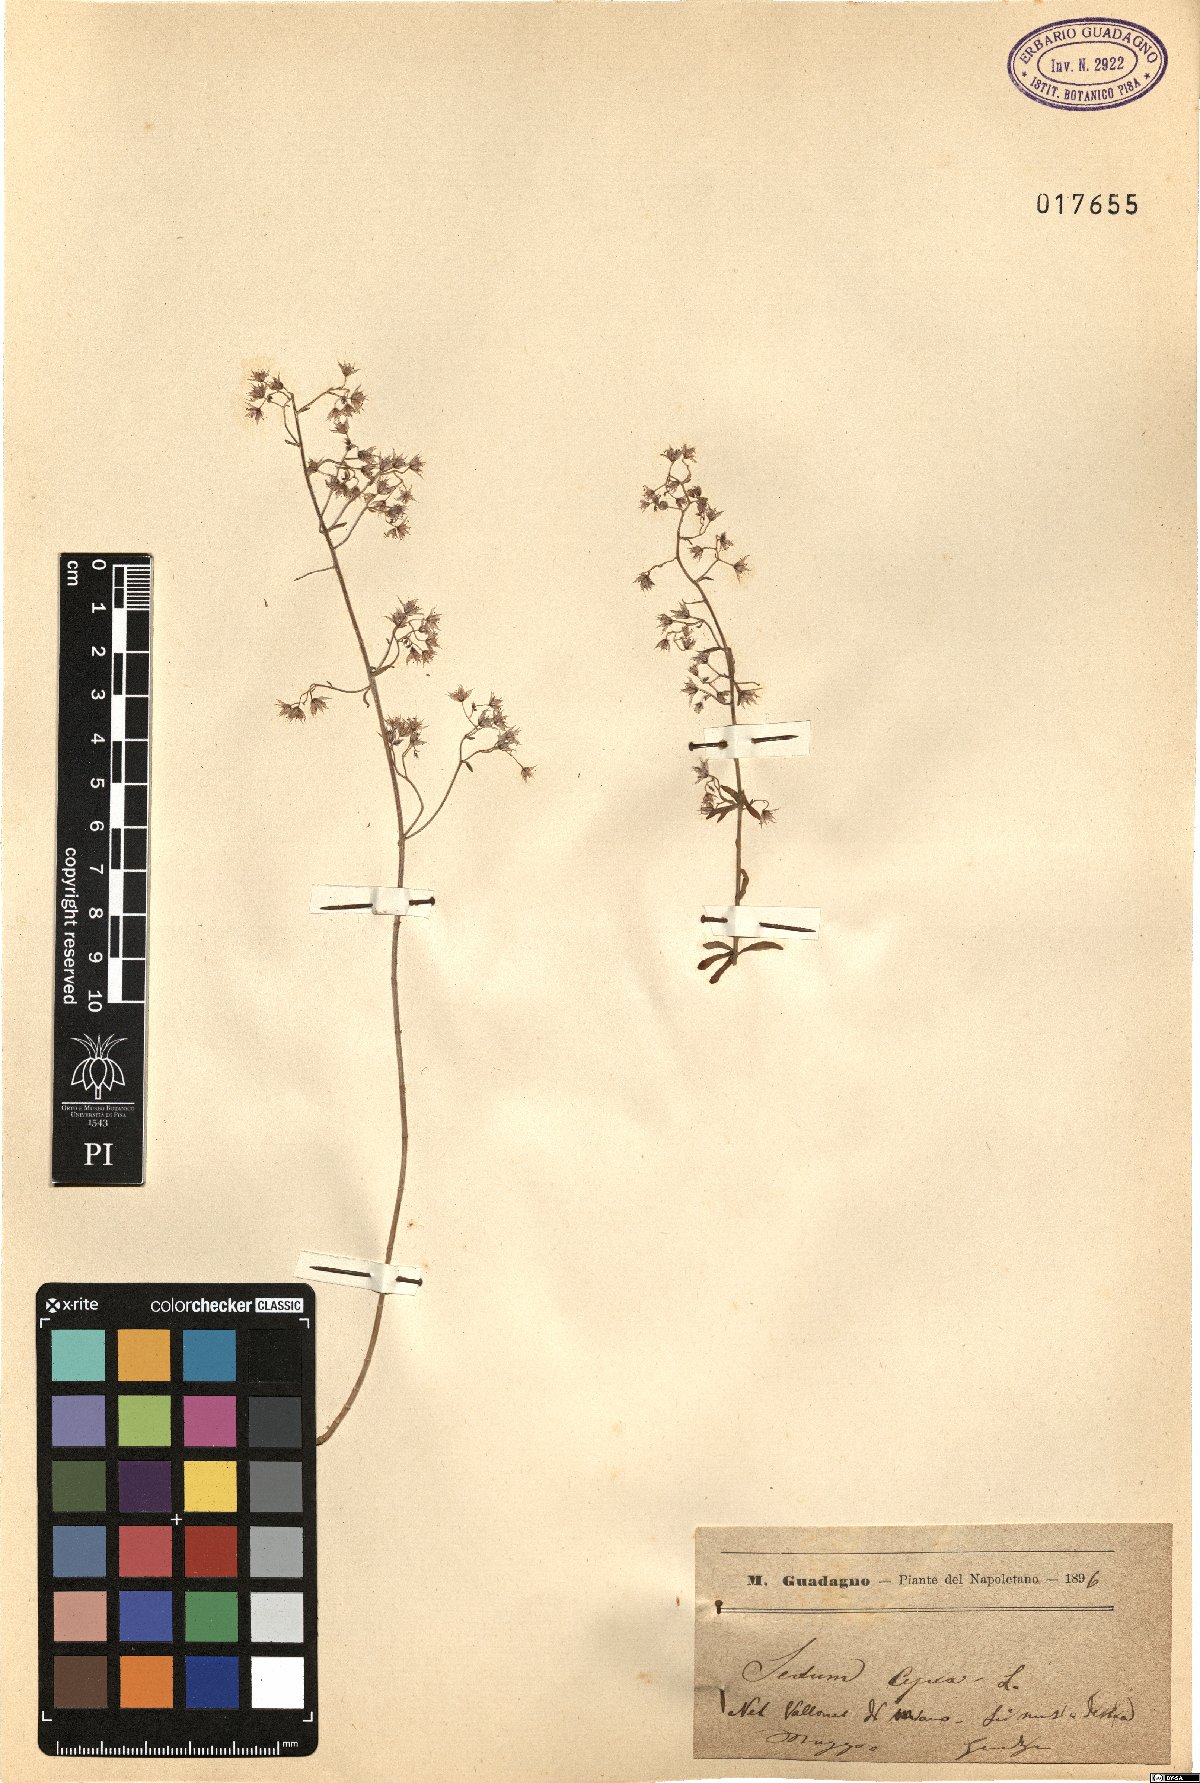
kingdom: Plantae
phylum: Tracheophyta
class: Magnoliopsida
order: Saxifragales
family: Crassulaceae
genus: Sedum
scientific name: Sedum cepaea
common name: Pink stonecrop
